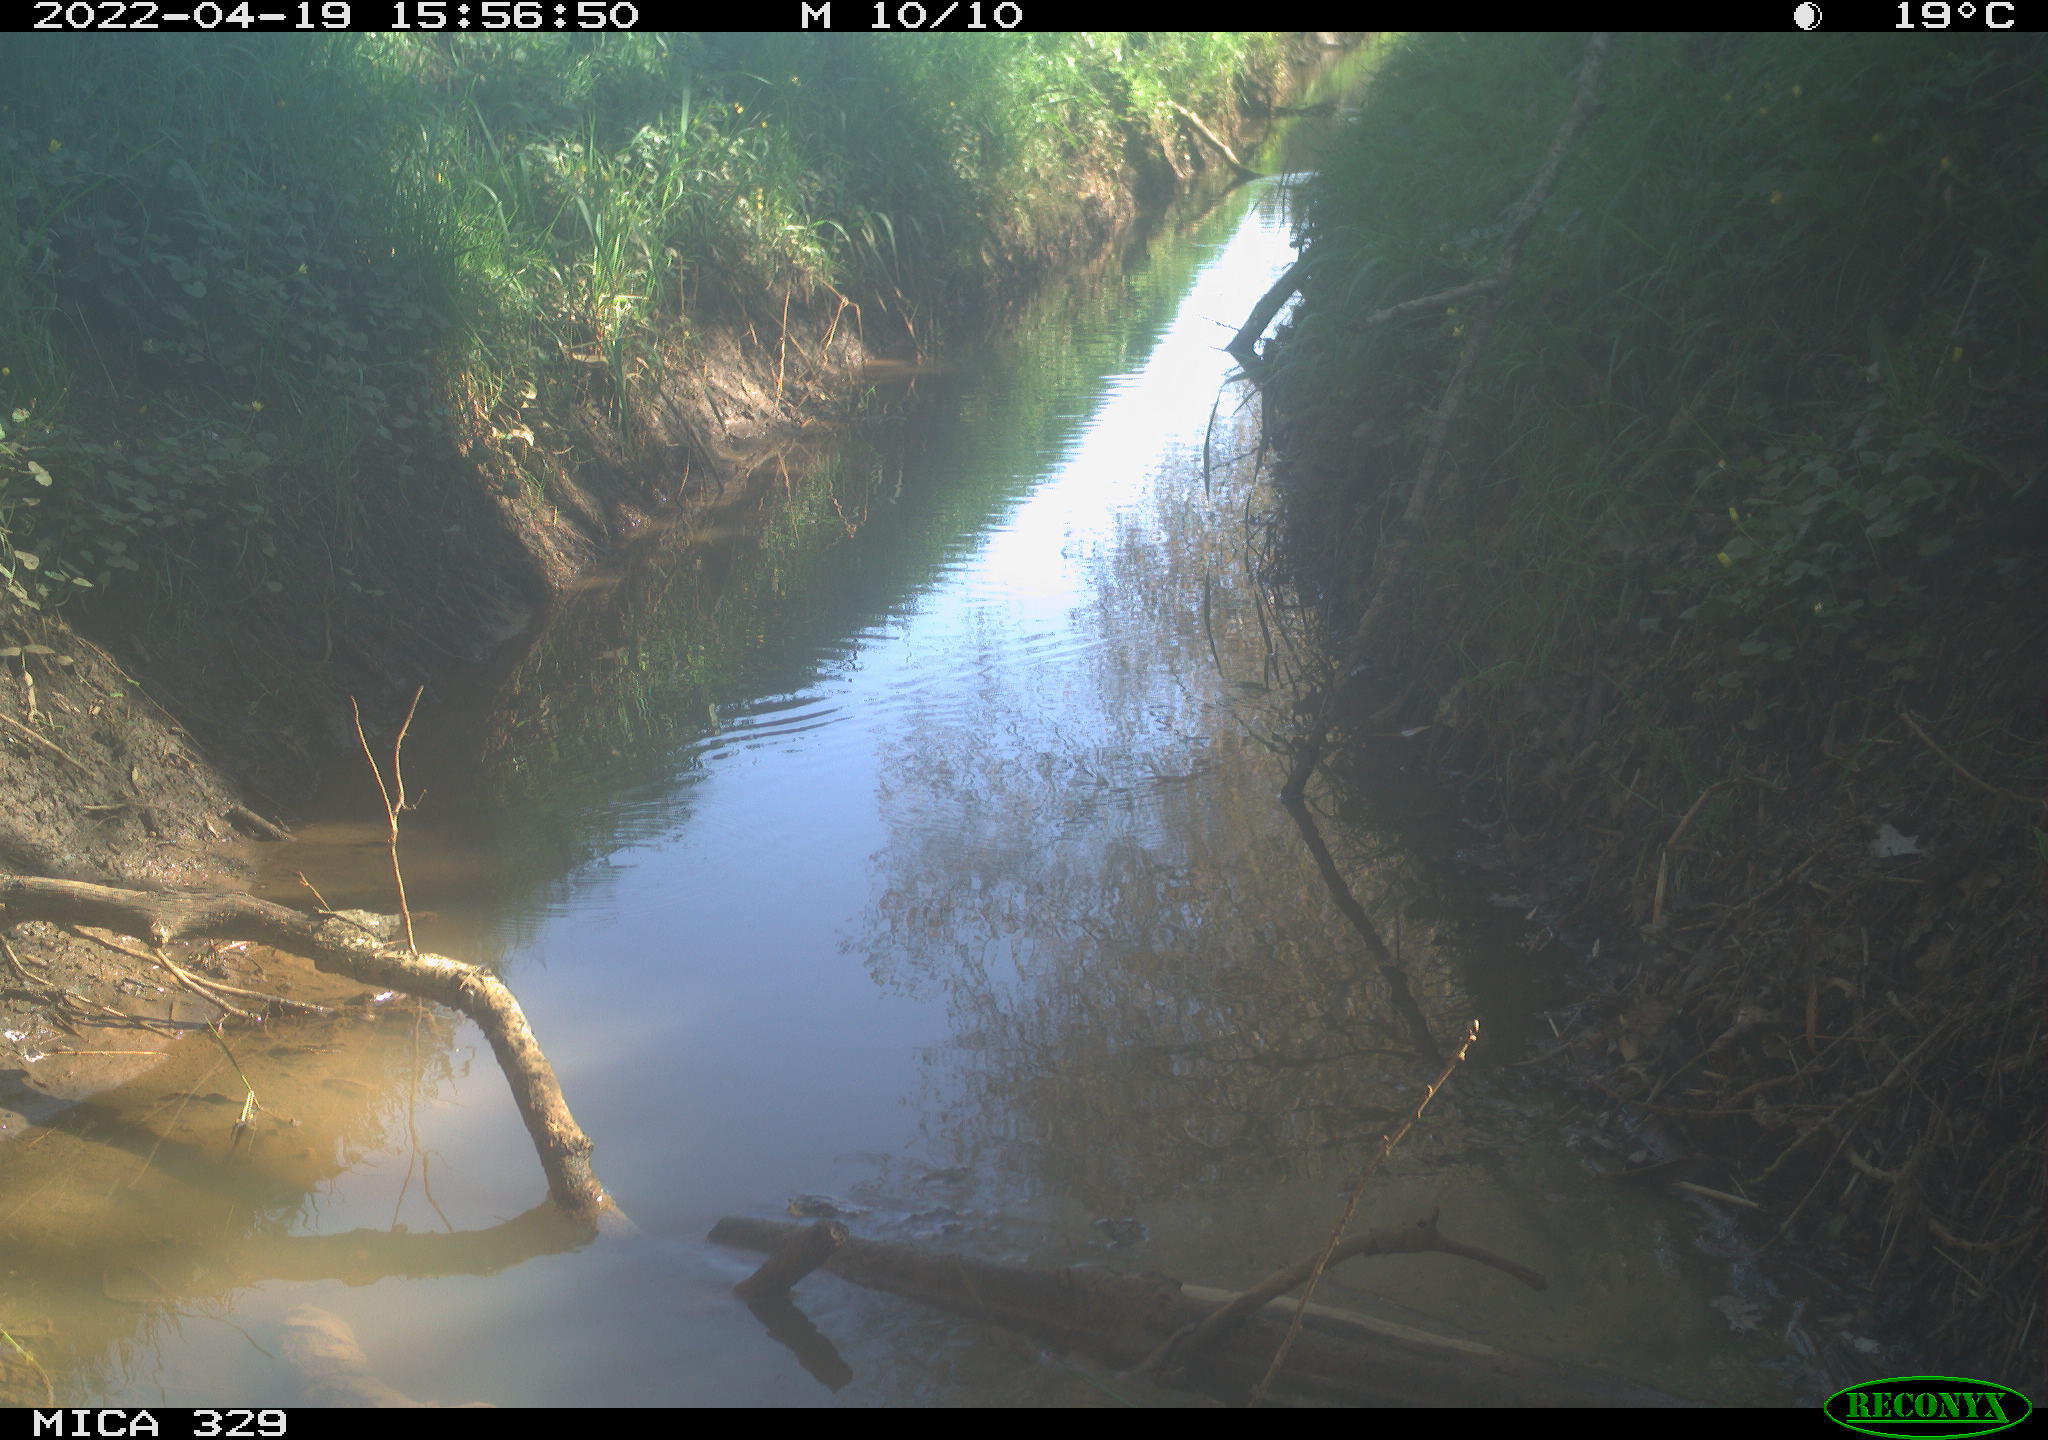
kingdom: Animalia
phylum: Chordata
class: Aves
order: Passeriformes
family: Turdidae
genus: Turdus
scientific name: Turdus merula
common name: Common blackbird
